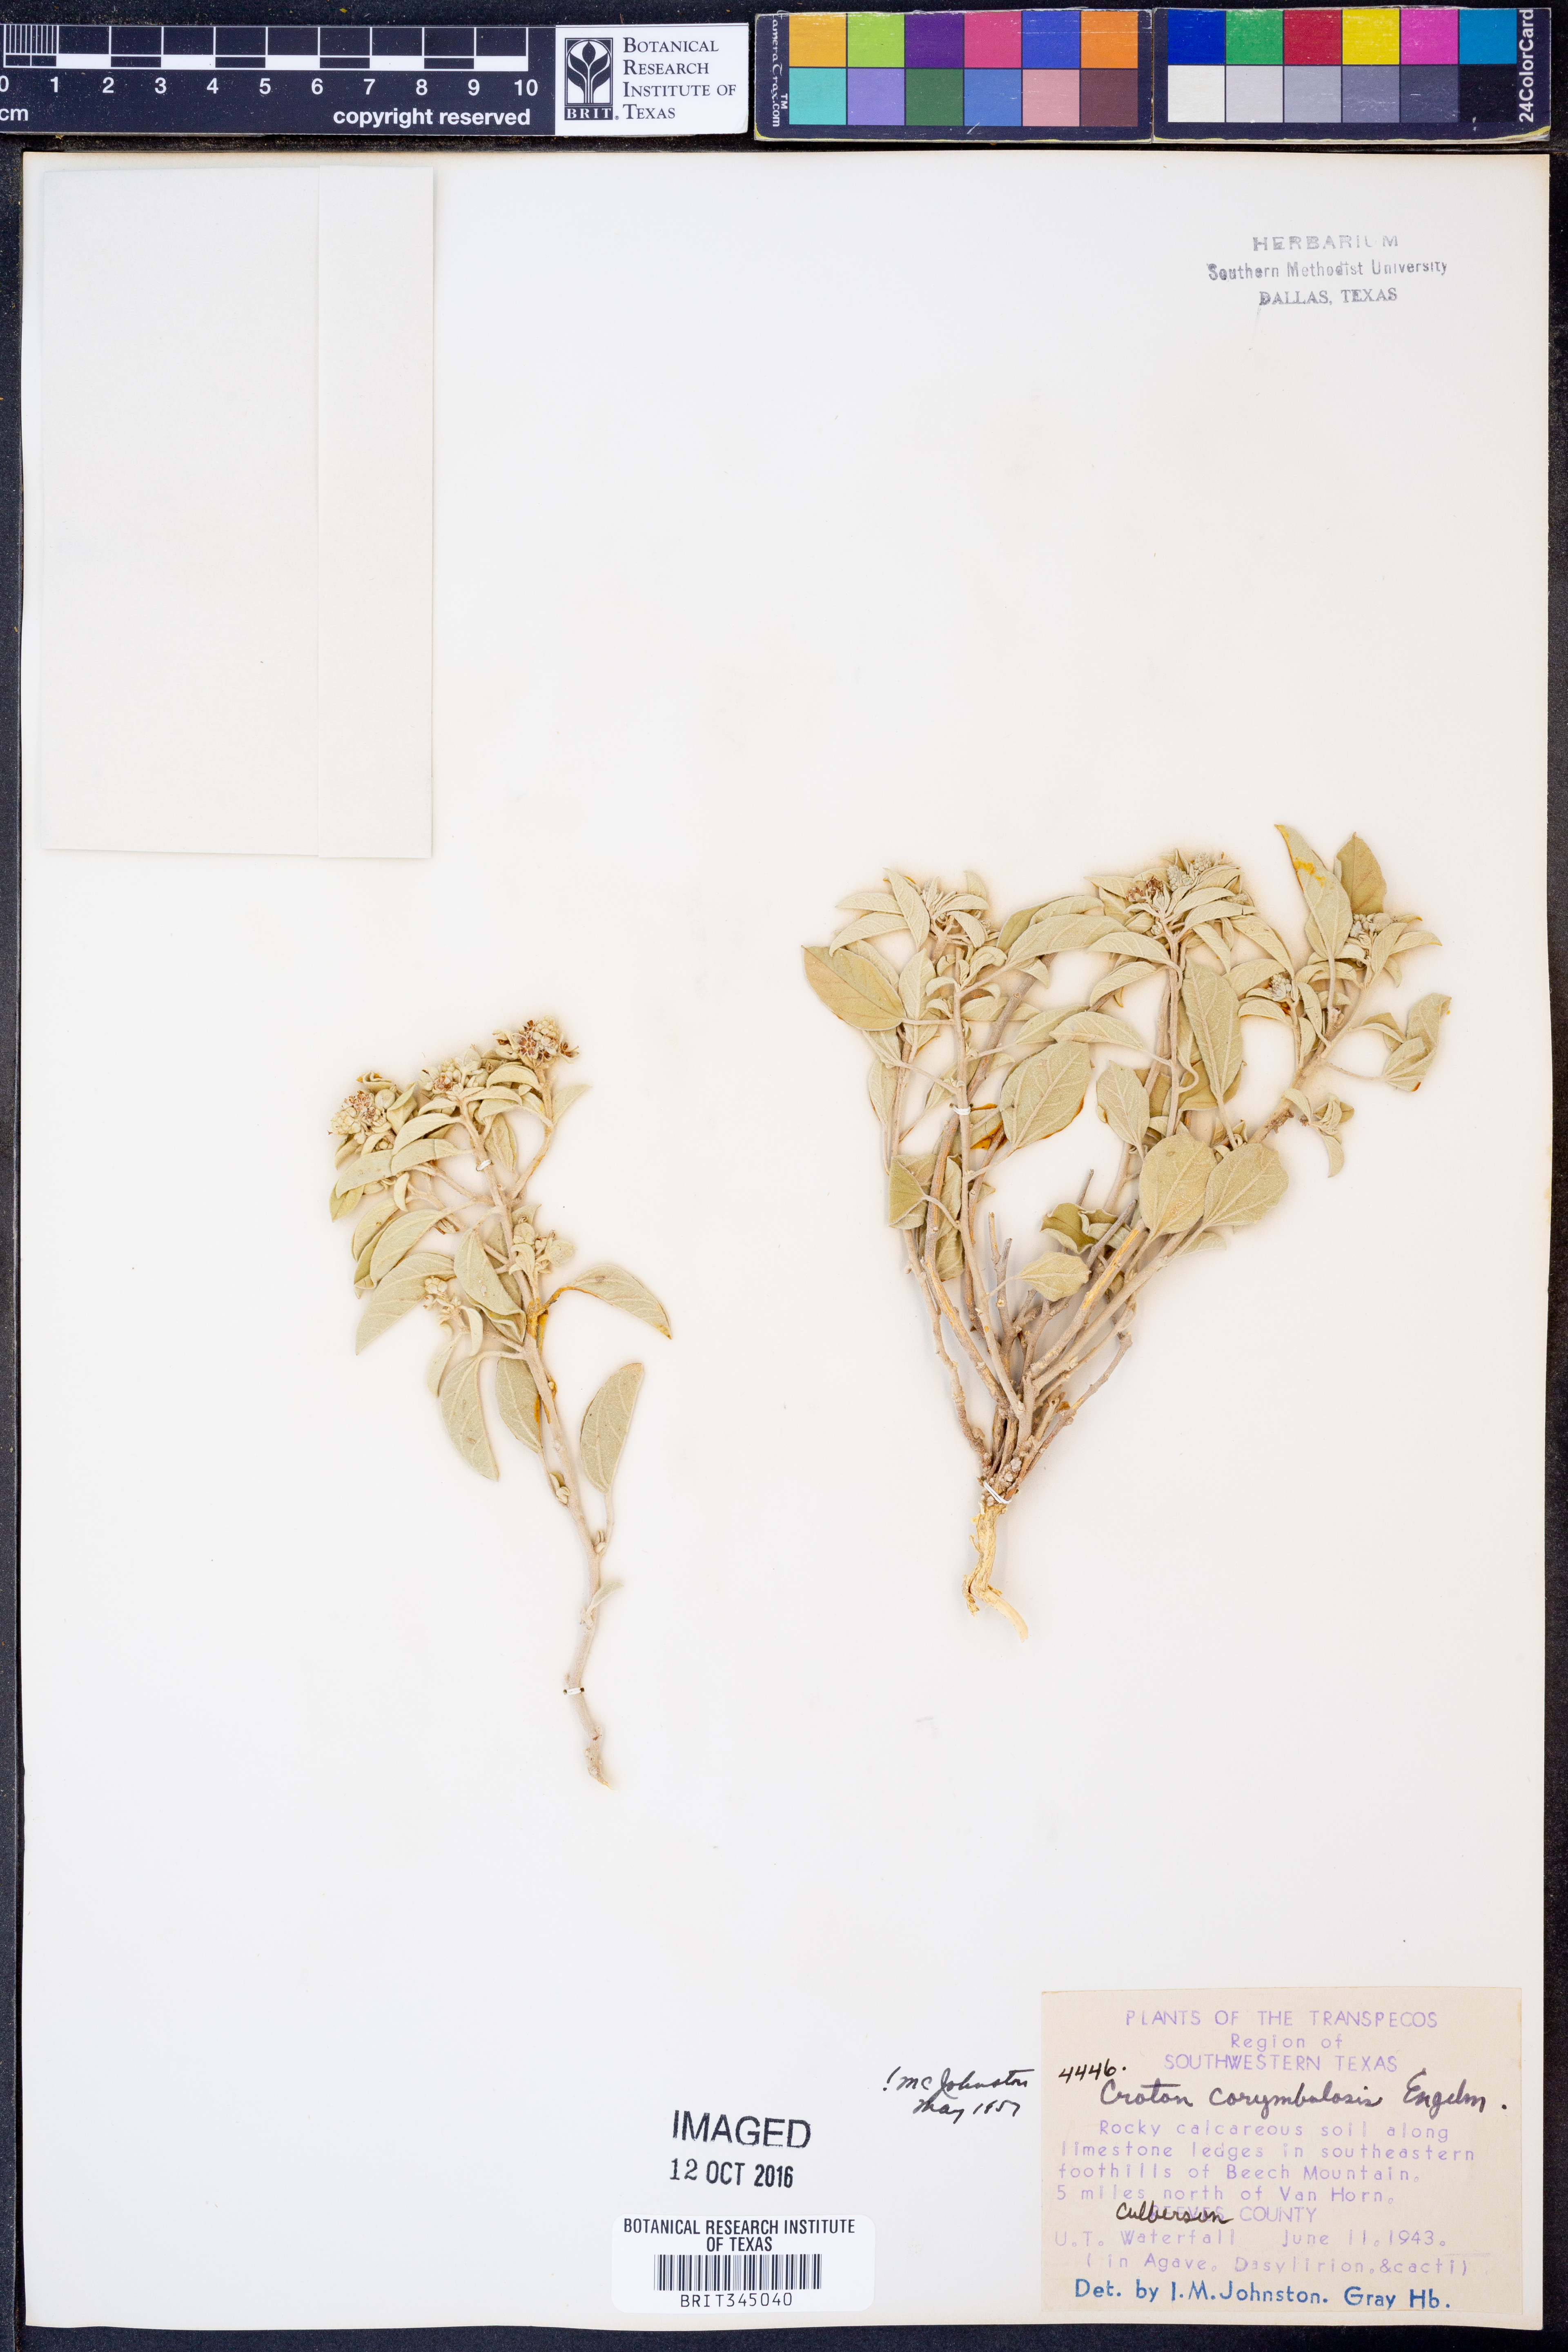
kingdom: Plantae
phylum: Tracheophyta
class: Magnoliopsida
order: Malpighiales
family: Euphorbiaceae
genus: Croton
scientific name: Croton pottsii
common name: Leatherweed
